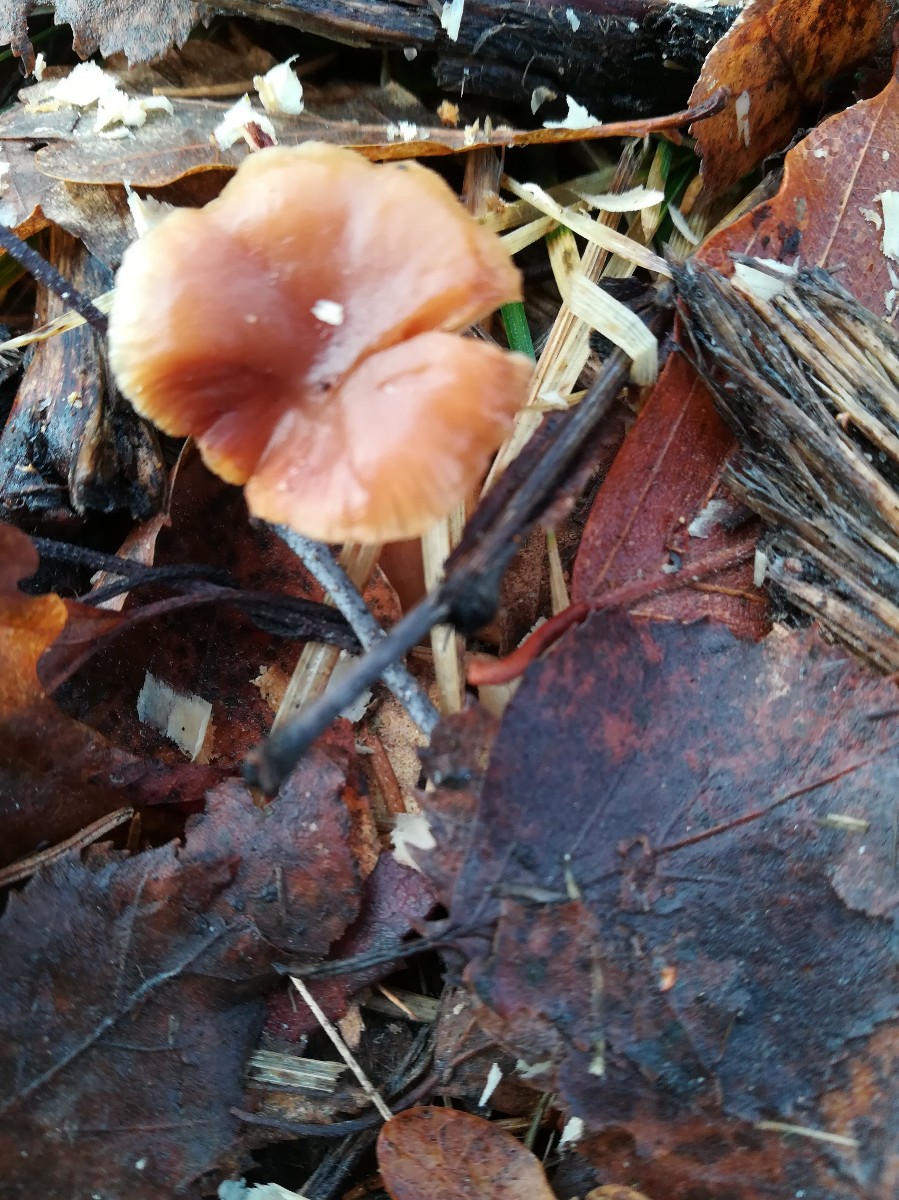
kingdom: Fungi
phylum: Basidiomycota
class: Agaricomycetes
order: Agaricales
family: Tubariaceae
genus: Tubaria
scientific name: Tubaria furfuracea
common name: kliddet fnughat
